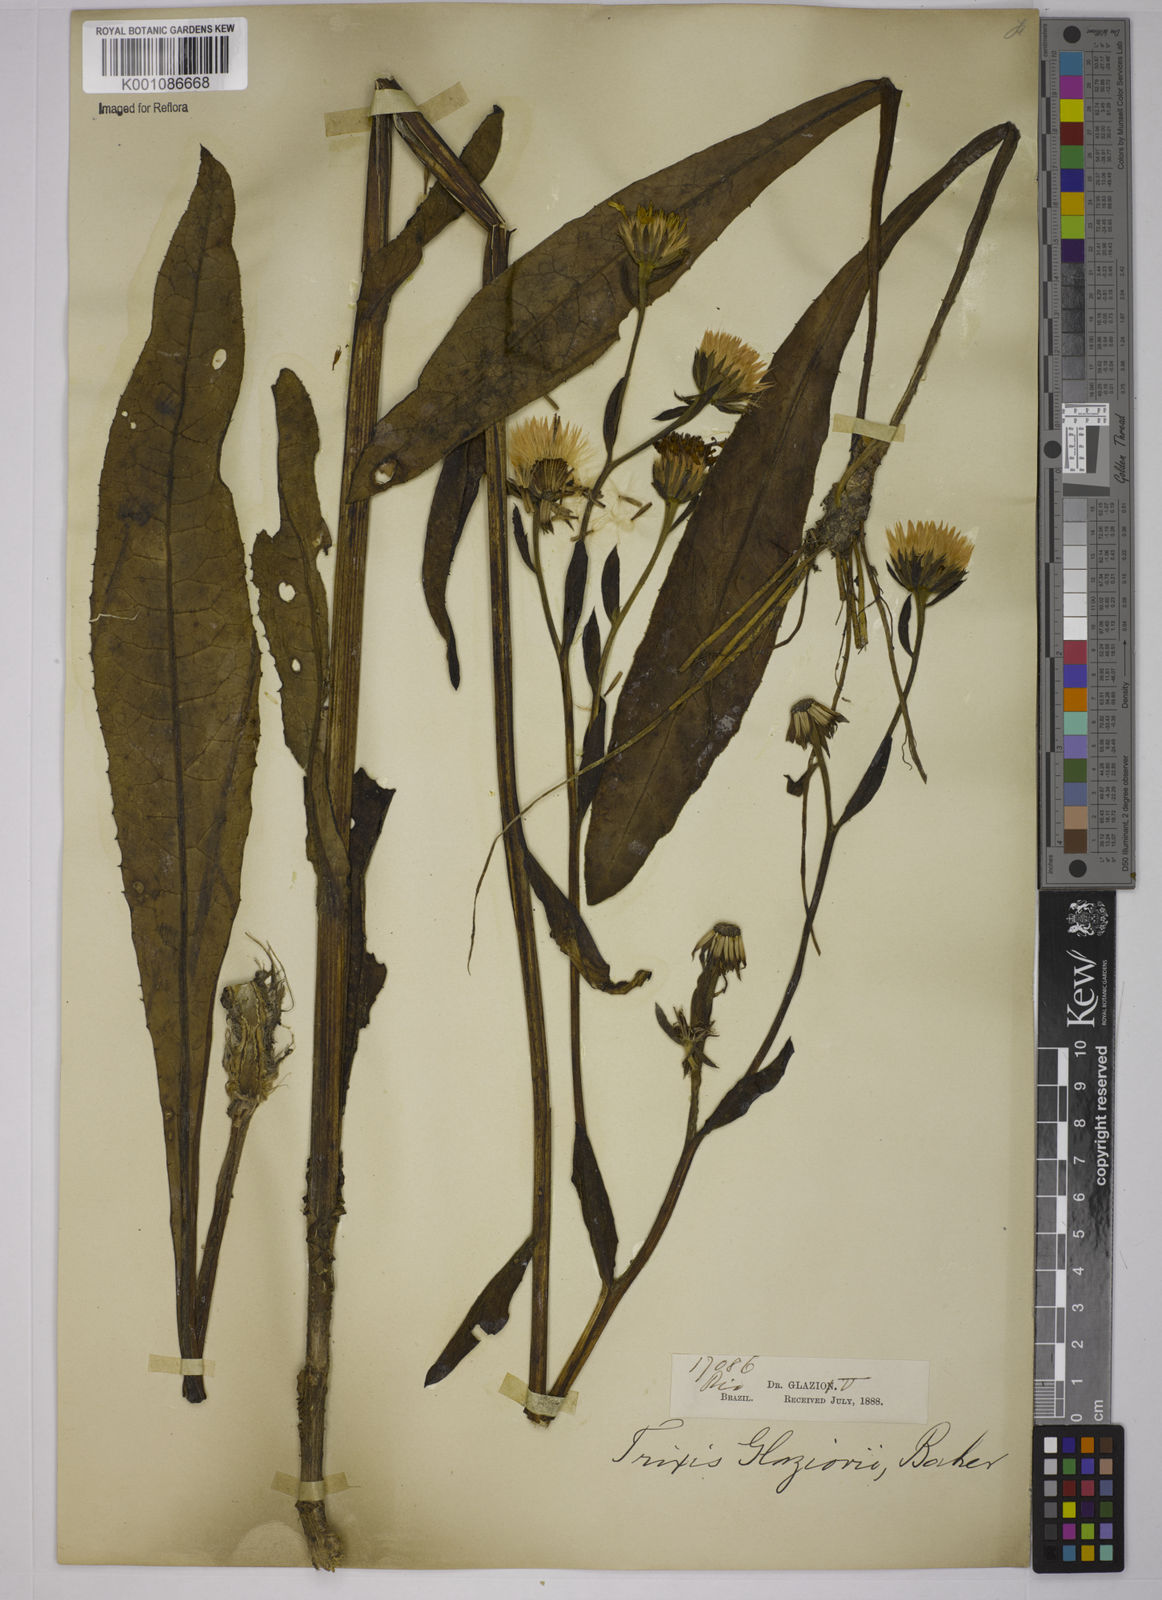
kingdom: Plantae
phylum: Tracheophyta
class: Magnoliopsida
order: Asterales
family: Asteraceae
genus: Trixis
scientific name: Trixis lessingii
